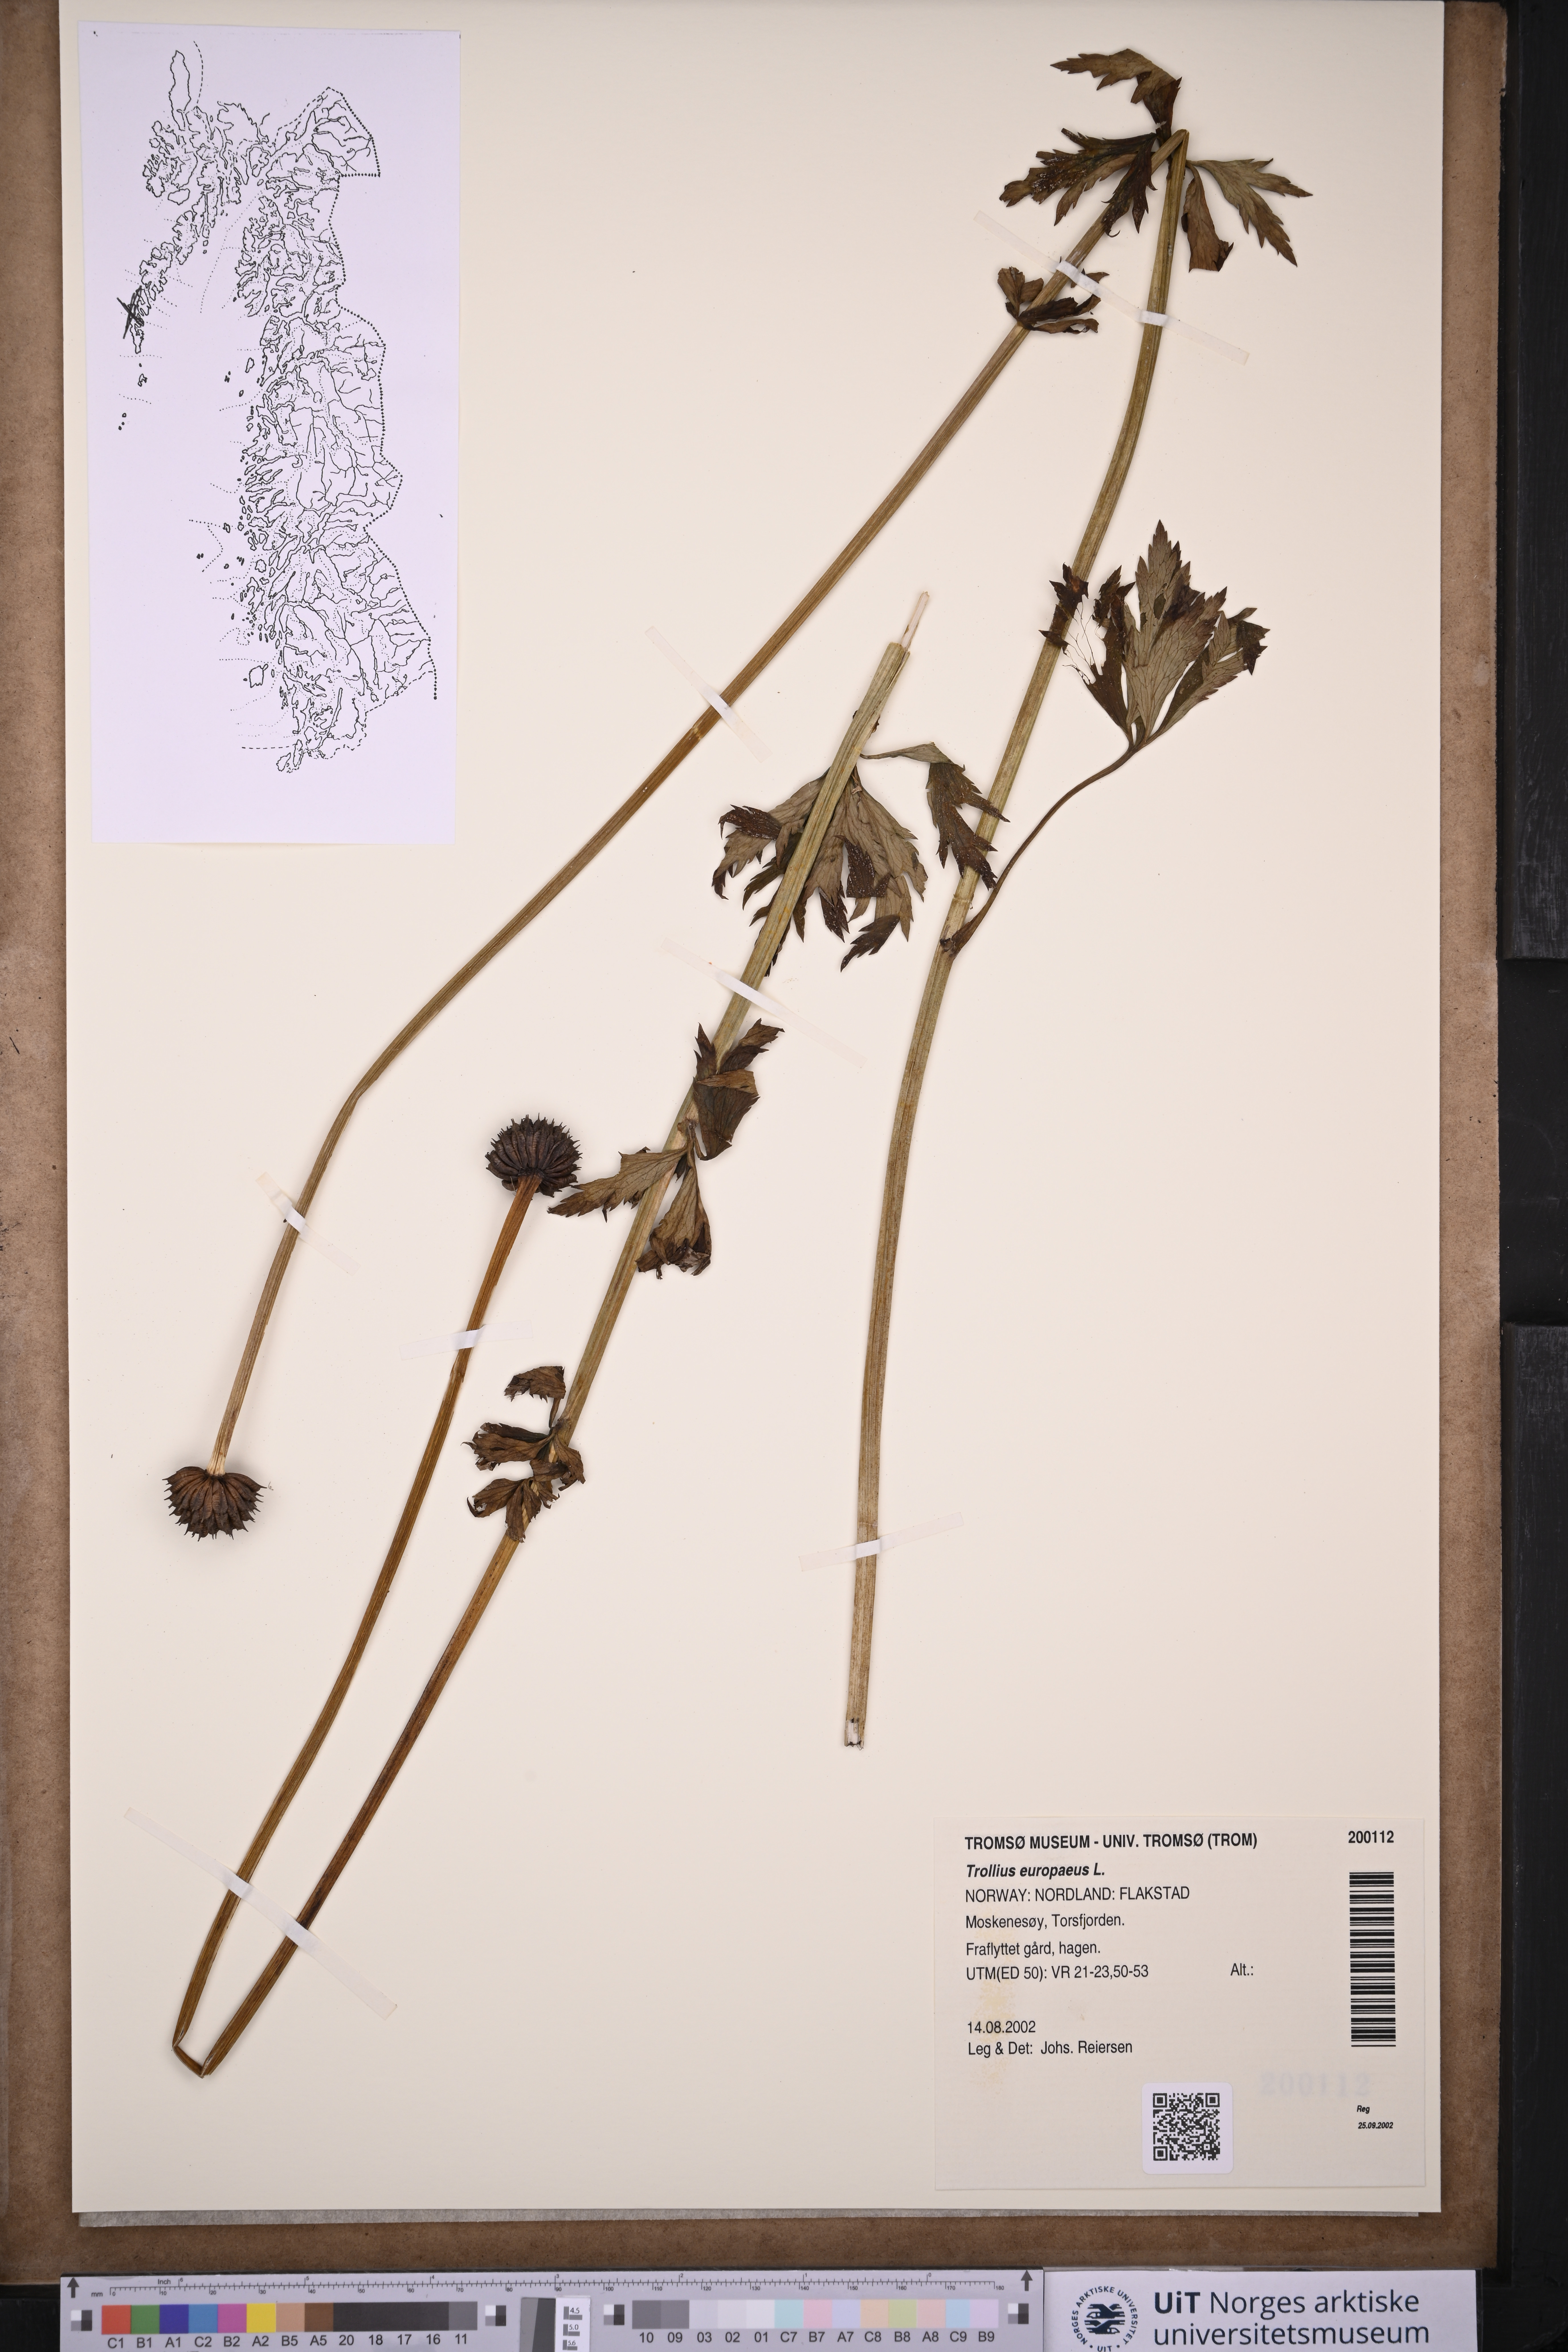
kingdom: Plantae
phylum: Tracheophyta
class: Magnoliopsida
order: Ranunculales
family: Ranunculaceae
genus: Trollius
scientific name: Trollius europaeus
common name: European globeflower
